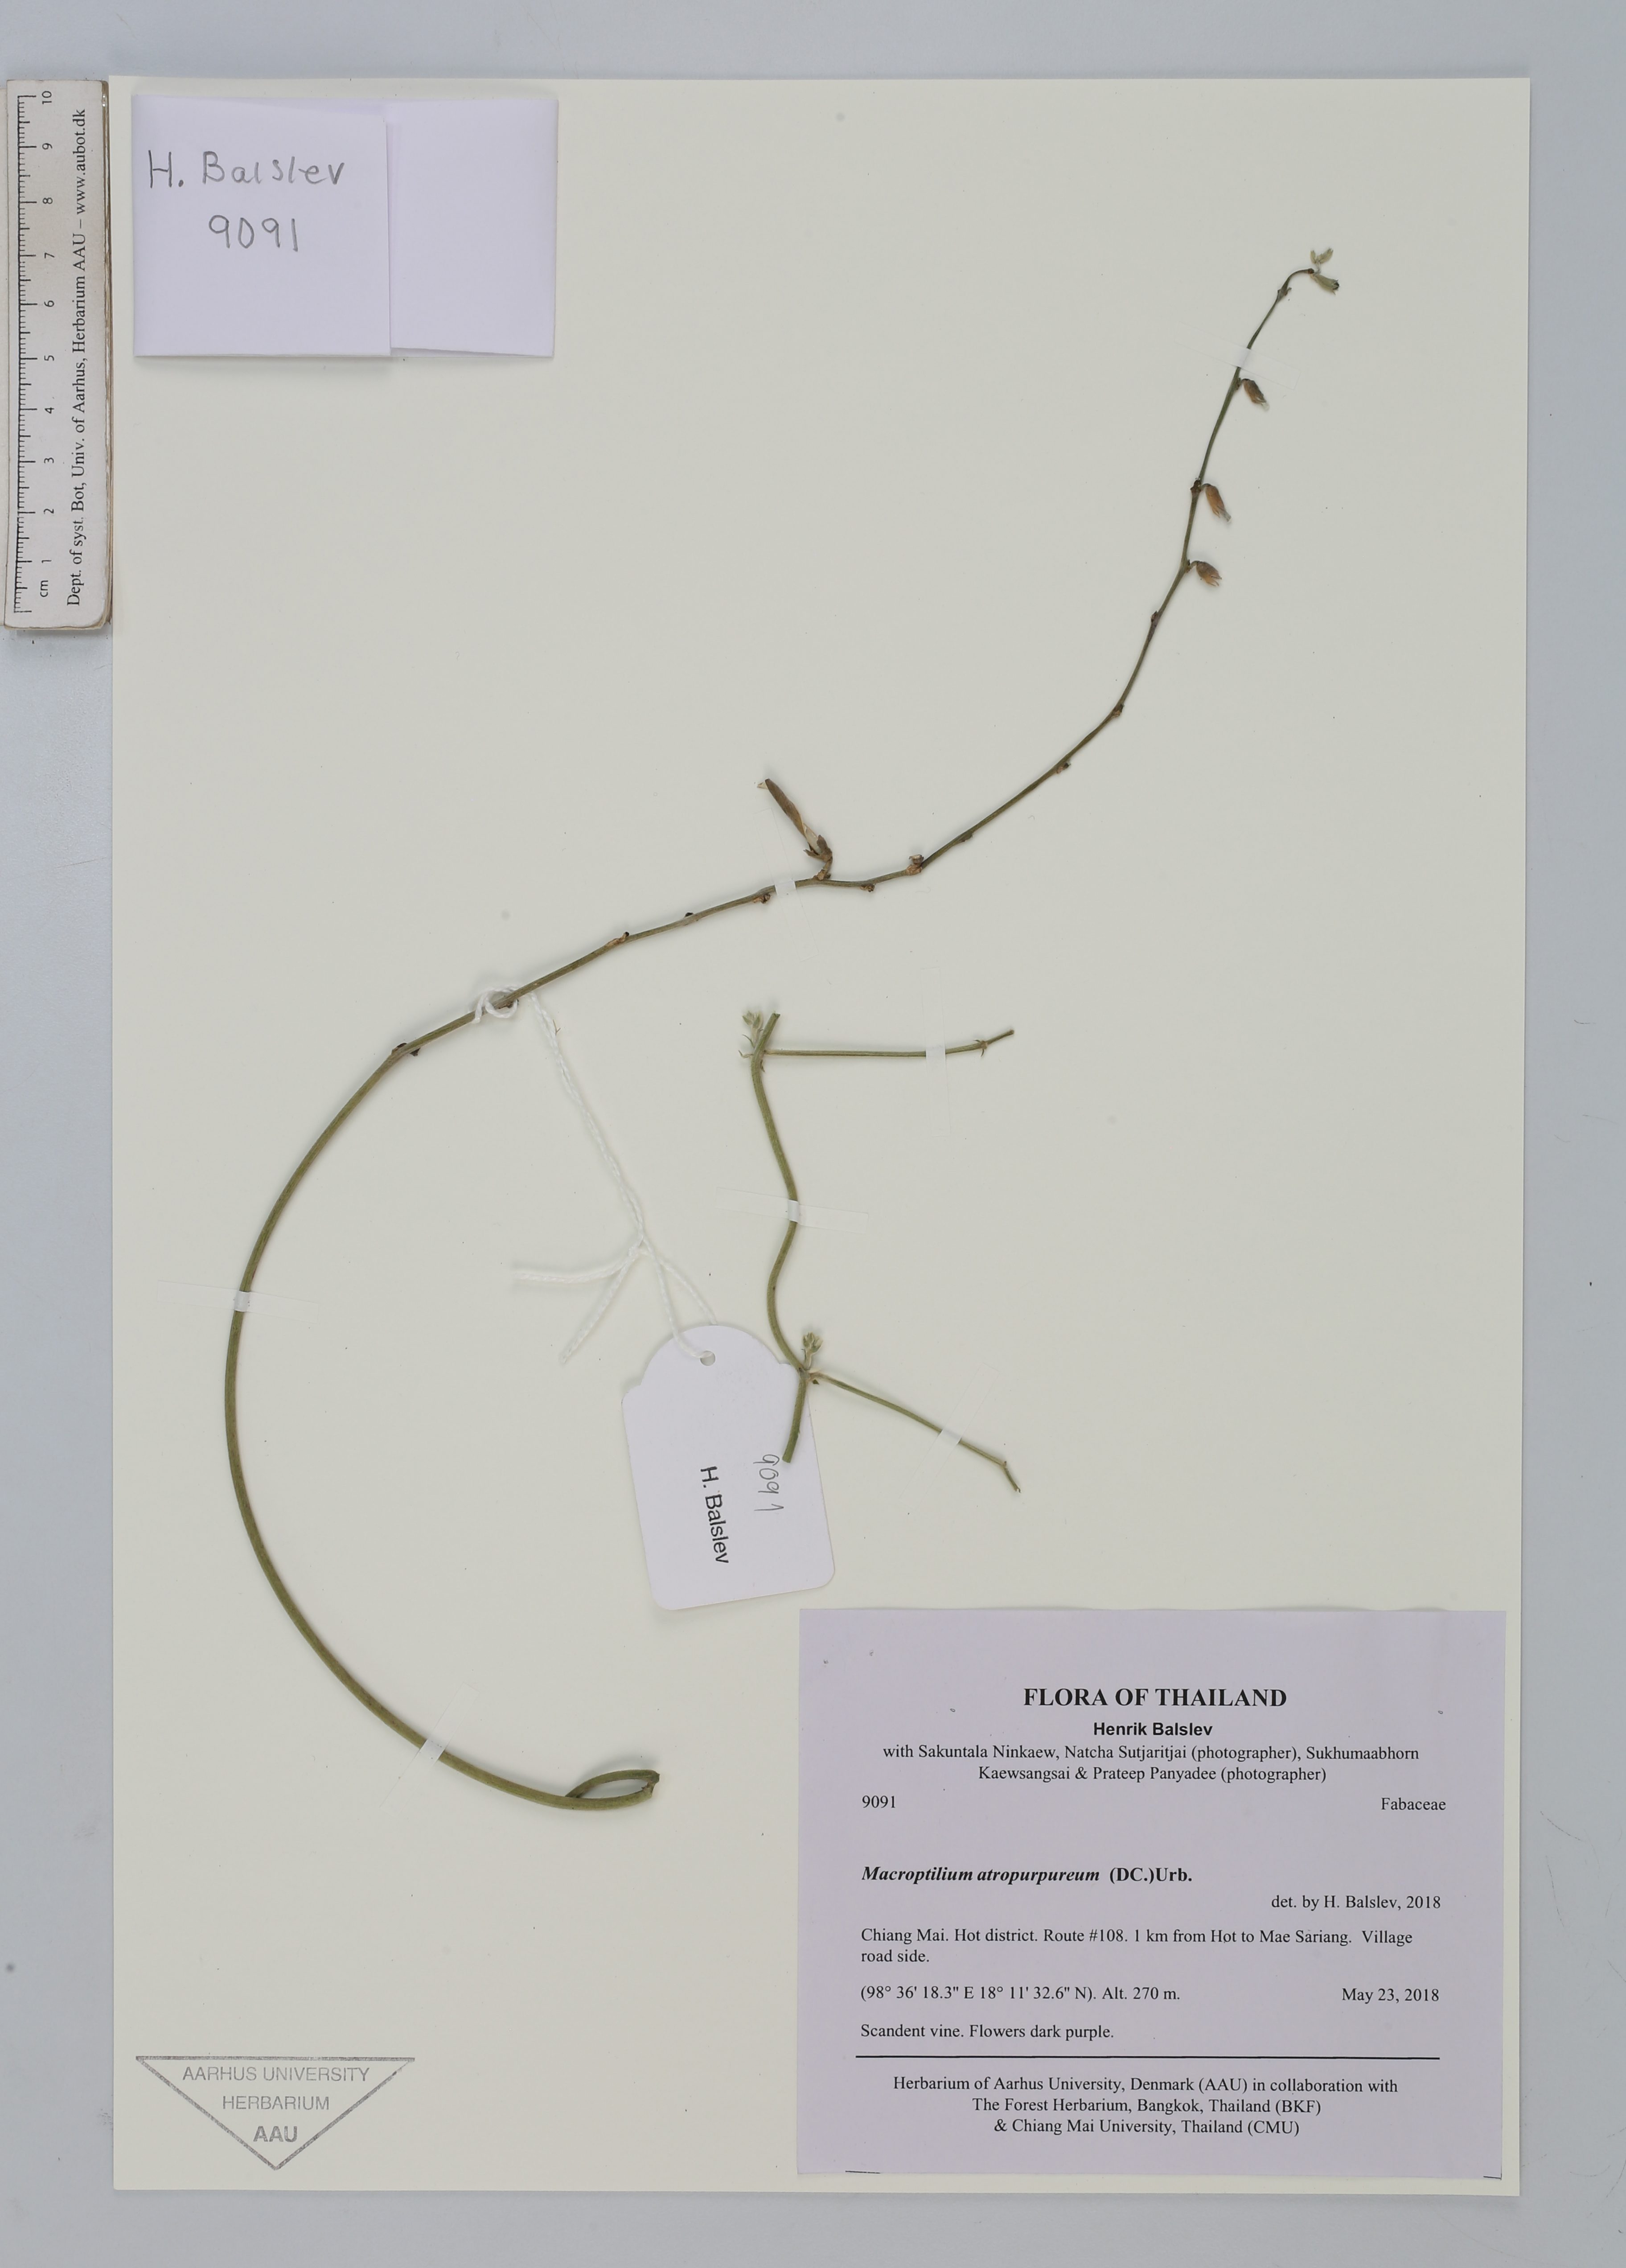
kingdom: Plantae
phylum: Tracheophyta
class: Magnoliopsida
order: Fabales
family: Fabaceae
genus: Macroptilium
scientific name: Macroptilium atropurpureum
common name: Purple bushbean
